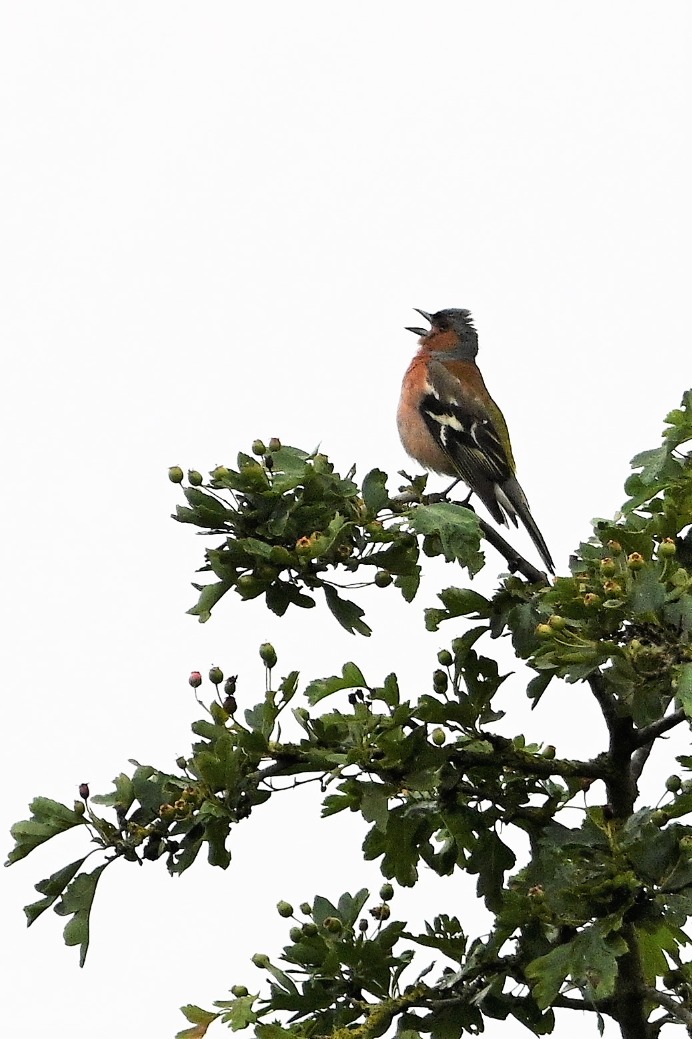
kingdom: Animalia
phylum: Chordata
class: Aves
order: Passeriformes
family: Fringillidae
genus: Fringilla
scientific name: Fringilla coelebs
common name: Bogfinke
